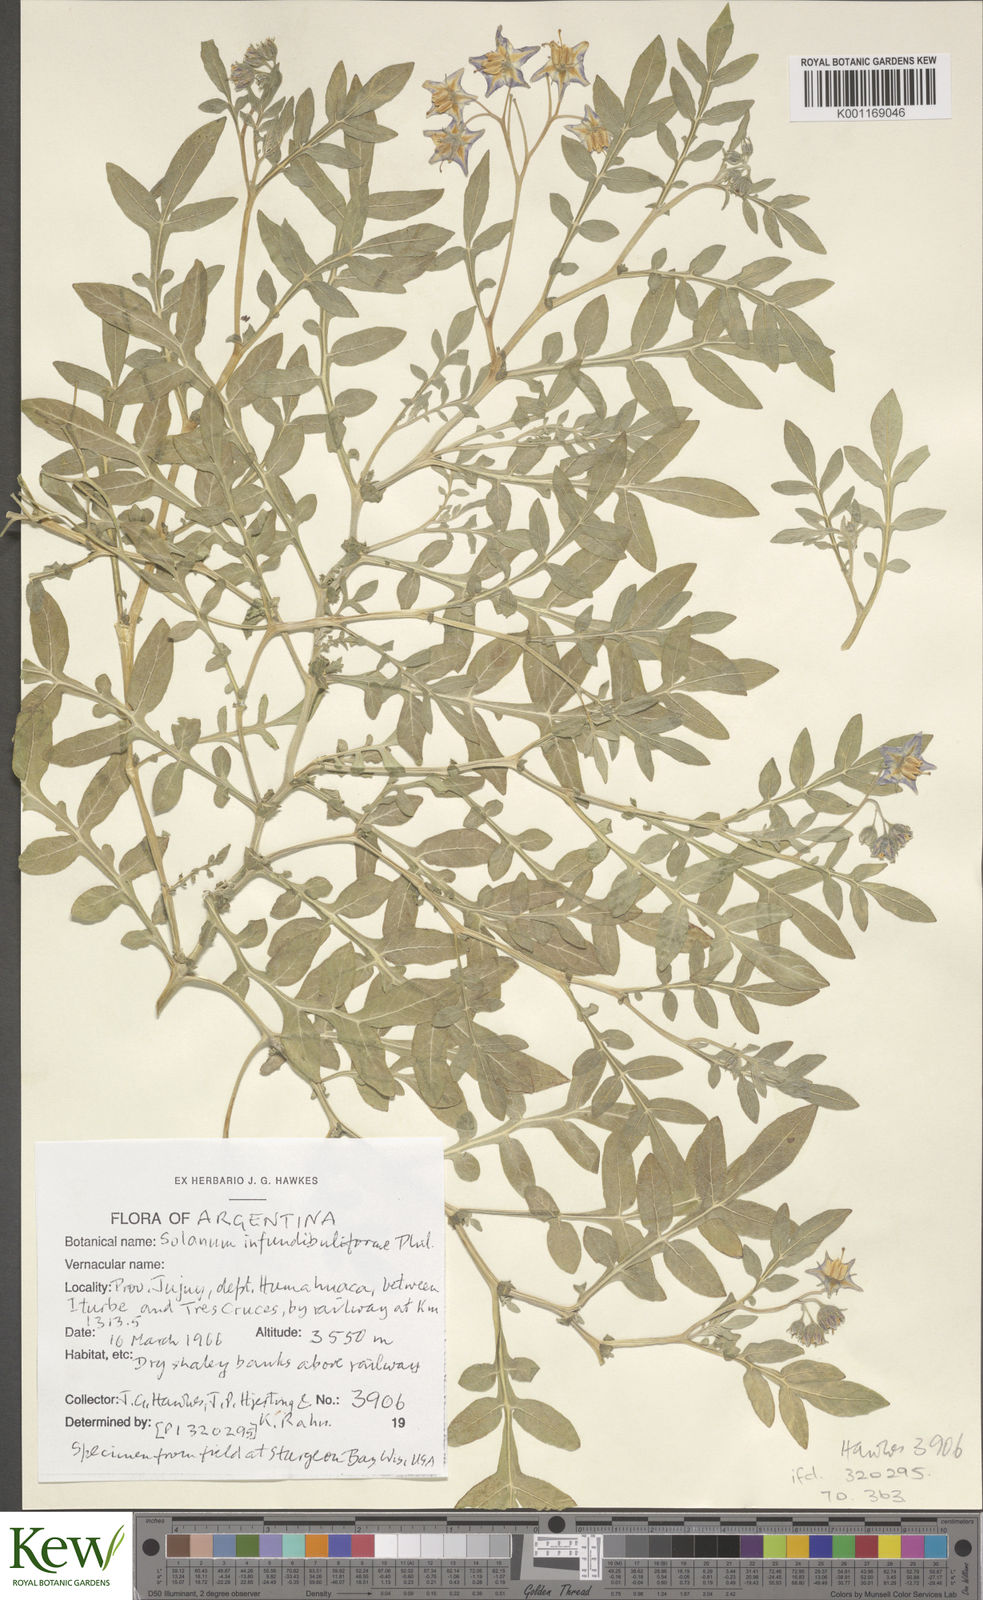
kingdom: Plantae
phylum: Tracheophyta
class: Magnoliopsida
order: Solanales
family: Solanaceae
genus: Solanum
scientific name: Solanum infundibuliforme
